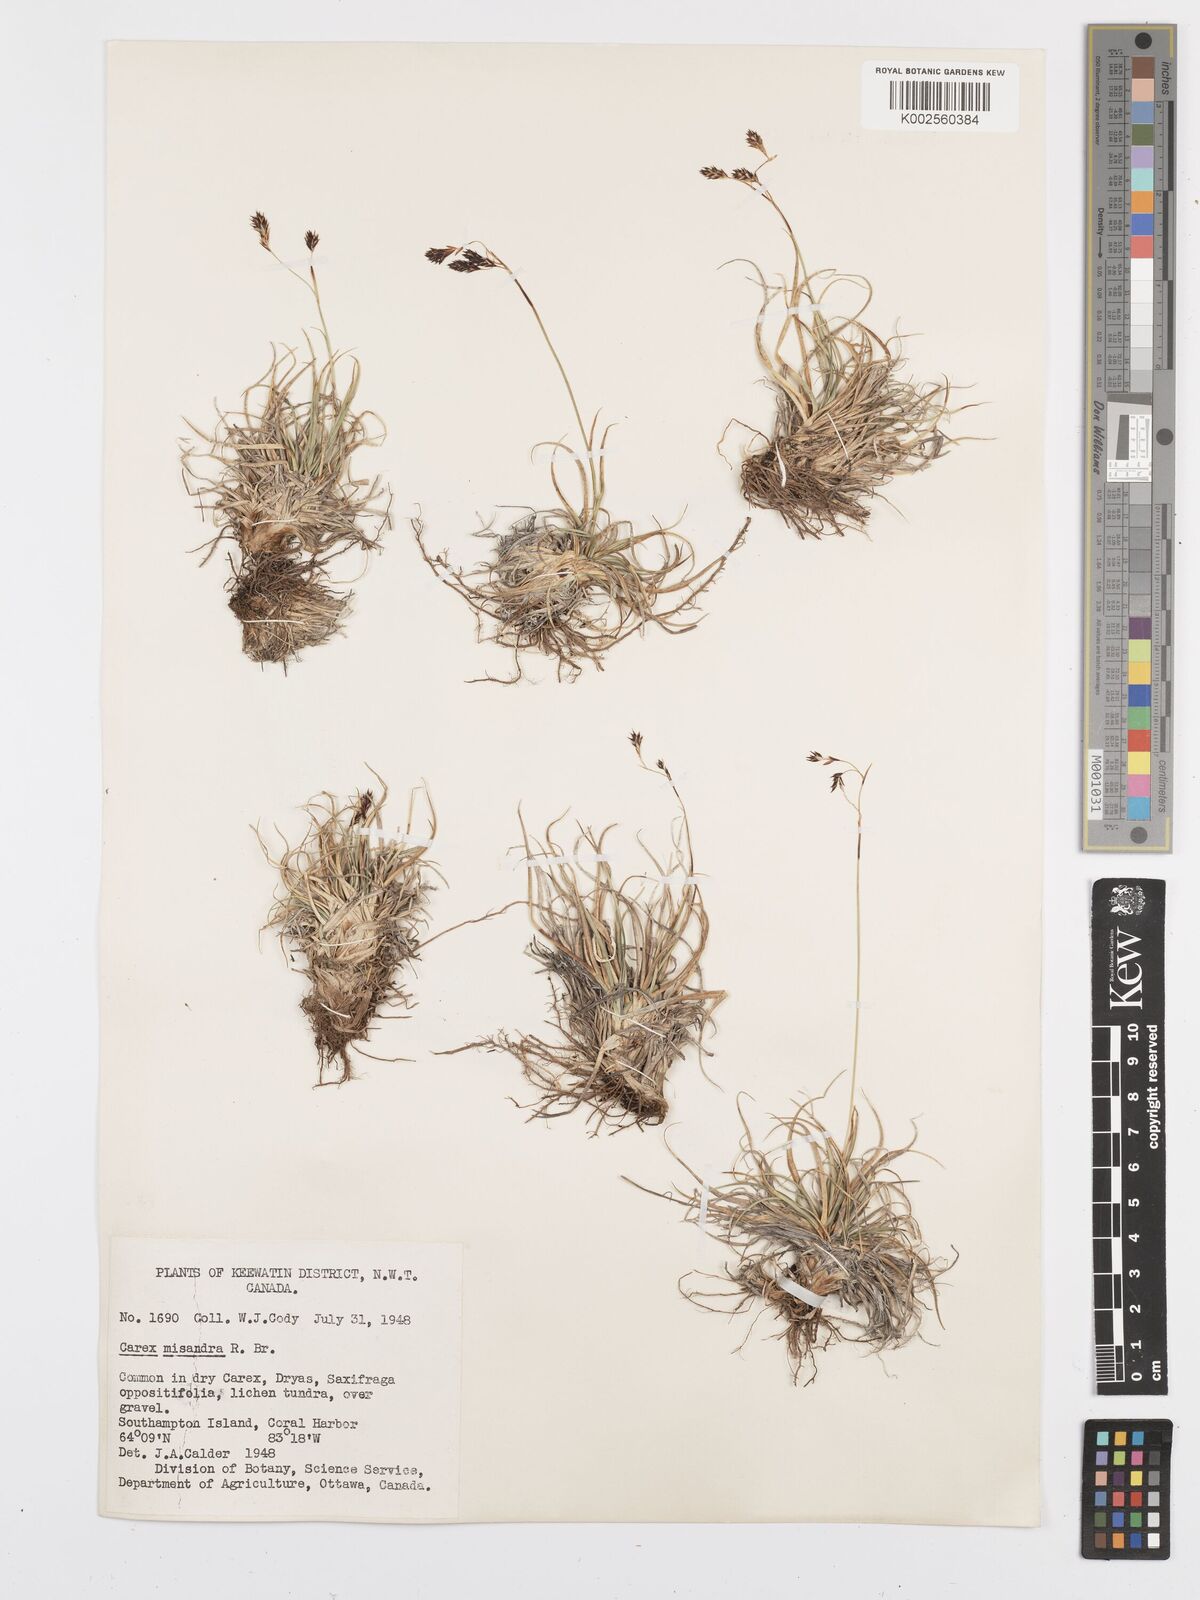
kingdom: Plantae
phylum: Tracheophyta
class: Liliopsida
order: Poales
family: Cyperaceae
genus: Carex
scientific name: Carex fuliginosa
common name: Few-flowered sedge
